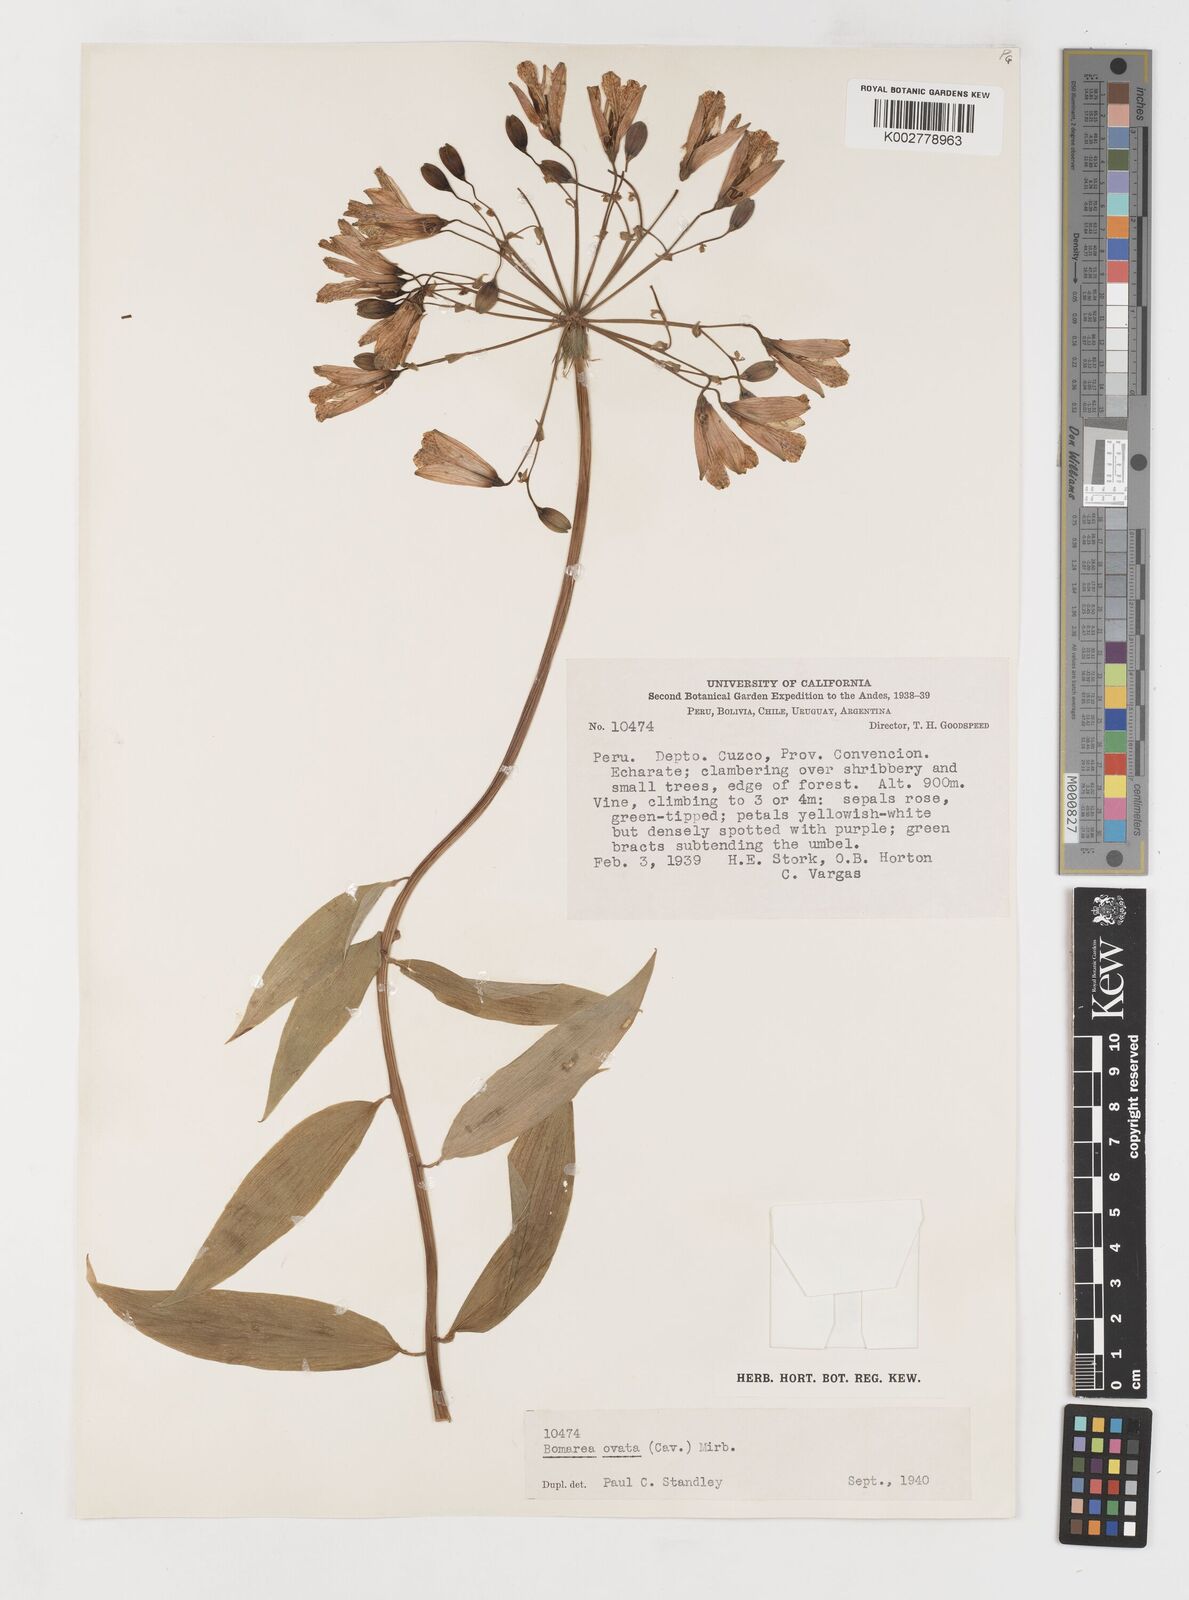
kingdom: Plantae
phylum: Tracheophyta
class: Liliopsida
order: Liliales
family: Alstroemeriaceae
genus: Bomarea
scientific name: Bomarea ovata
